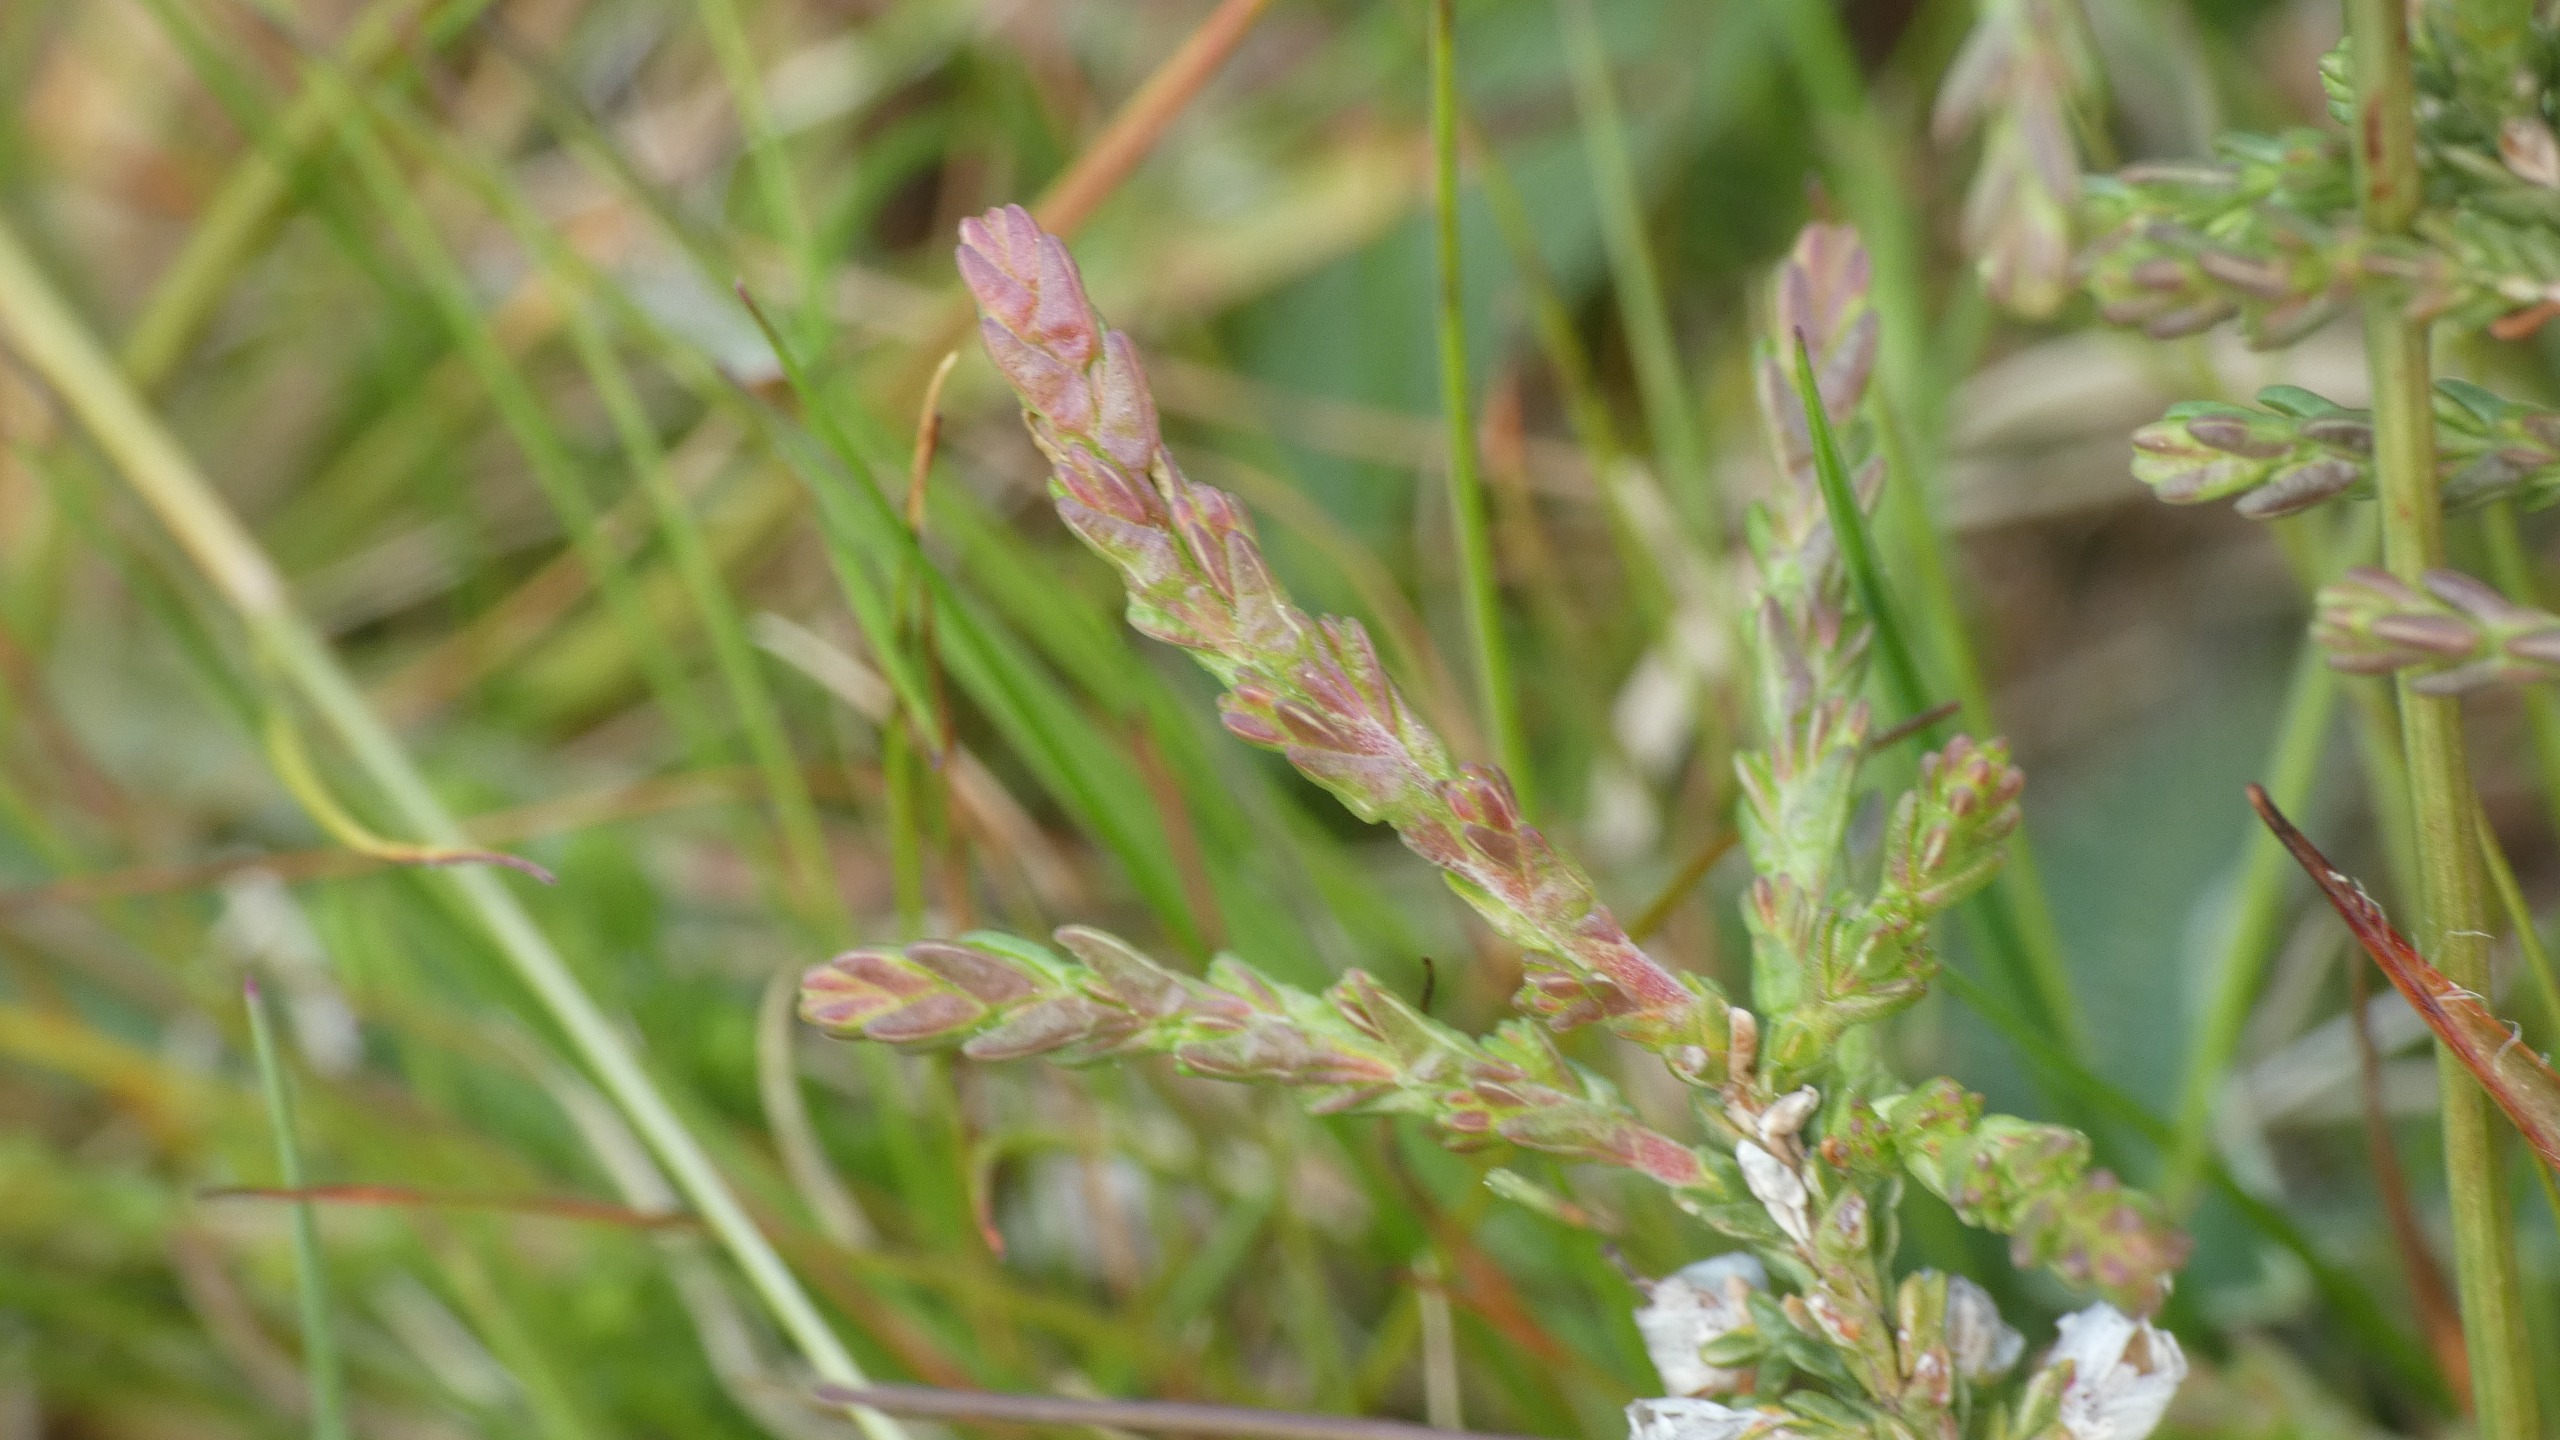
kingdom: Plantae
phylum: Tracheophyta
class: Magnoliopsida
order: Ericales
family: Ericaceae
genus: Calluna
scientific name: Calluna vulgaris
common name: Hedelyng
